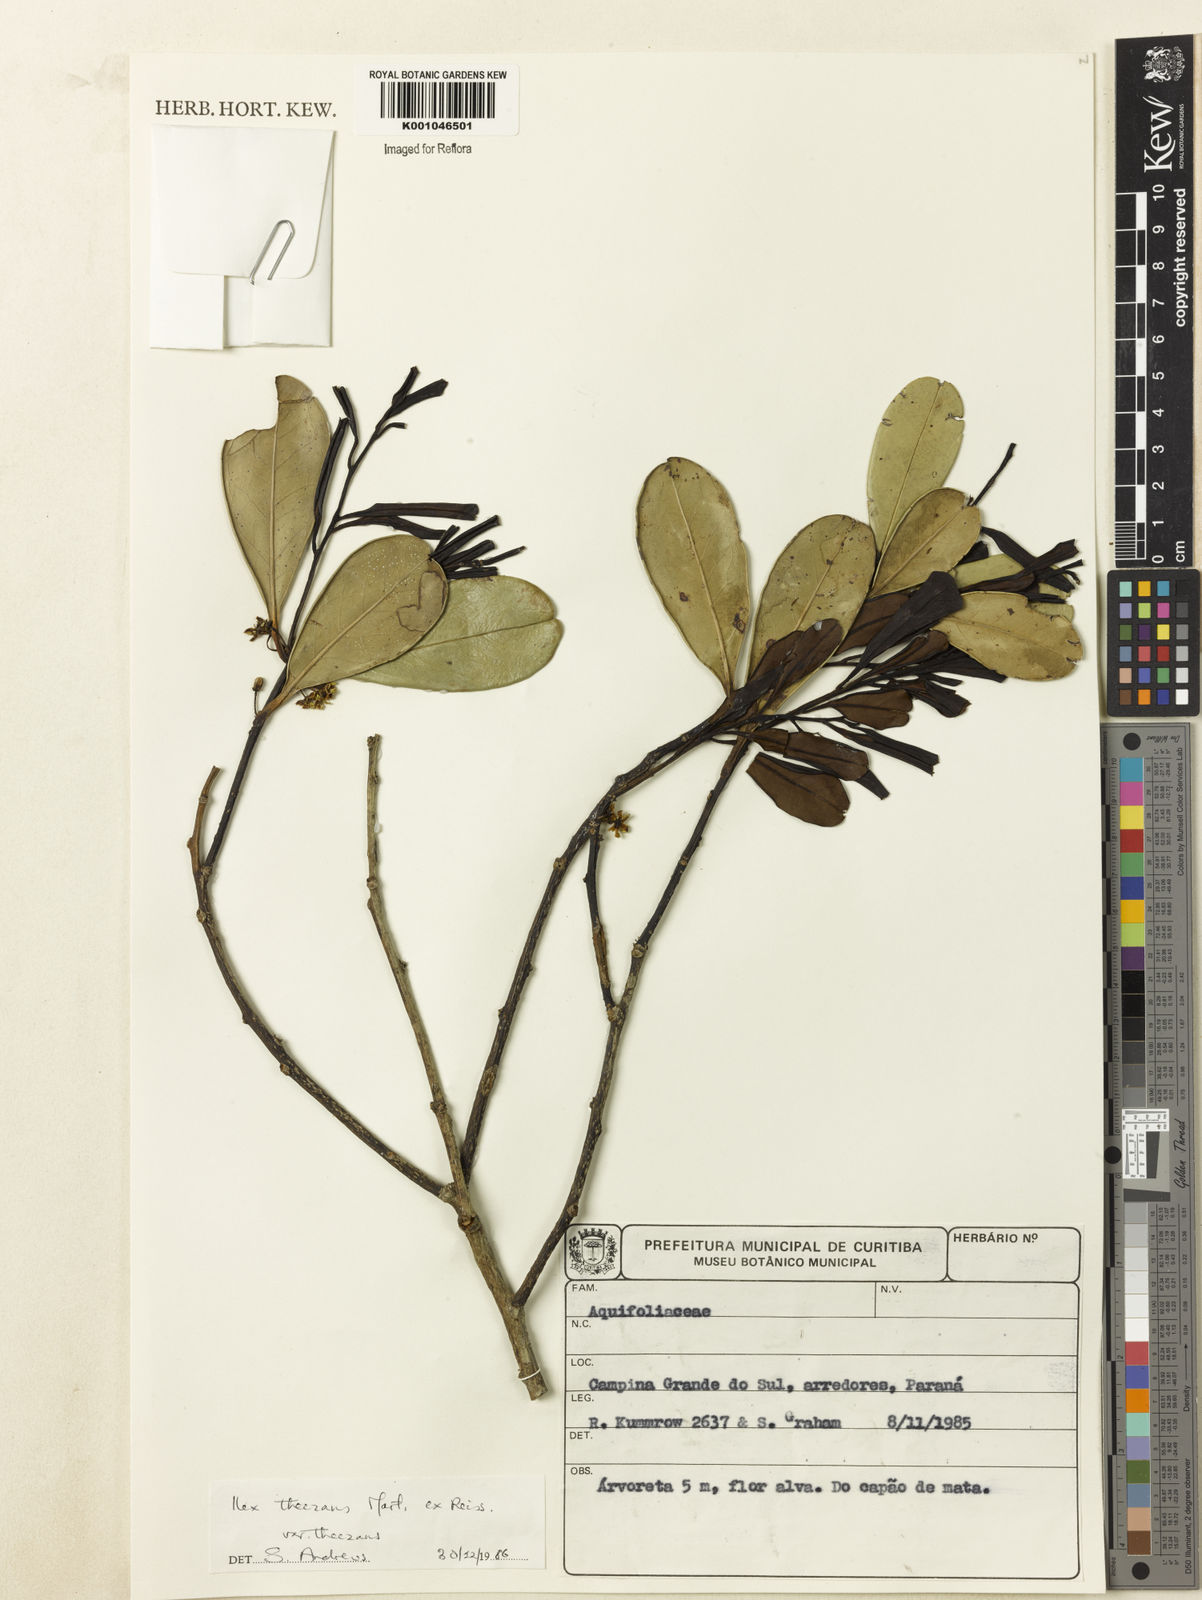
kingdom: Plantae
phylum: Tracheophyta
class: Magnoliopsida
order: Aquifoliales
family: Aquifoliaceae
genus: Ilex
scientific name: Ilex paraguariensis
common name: Paraguay tea
